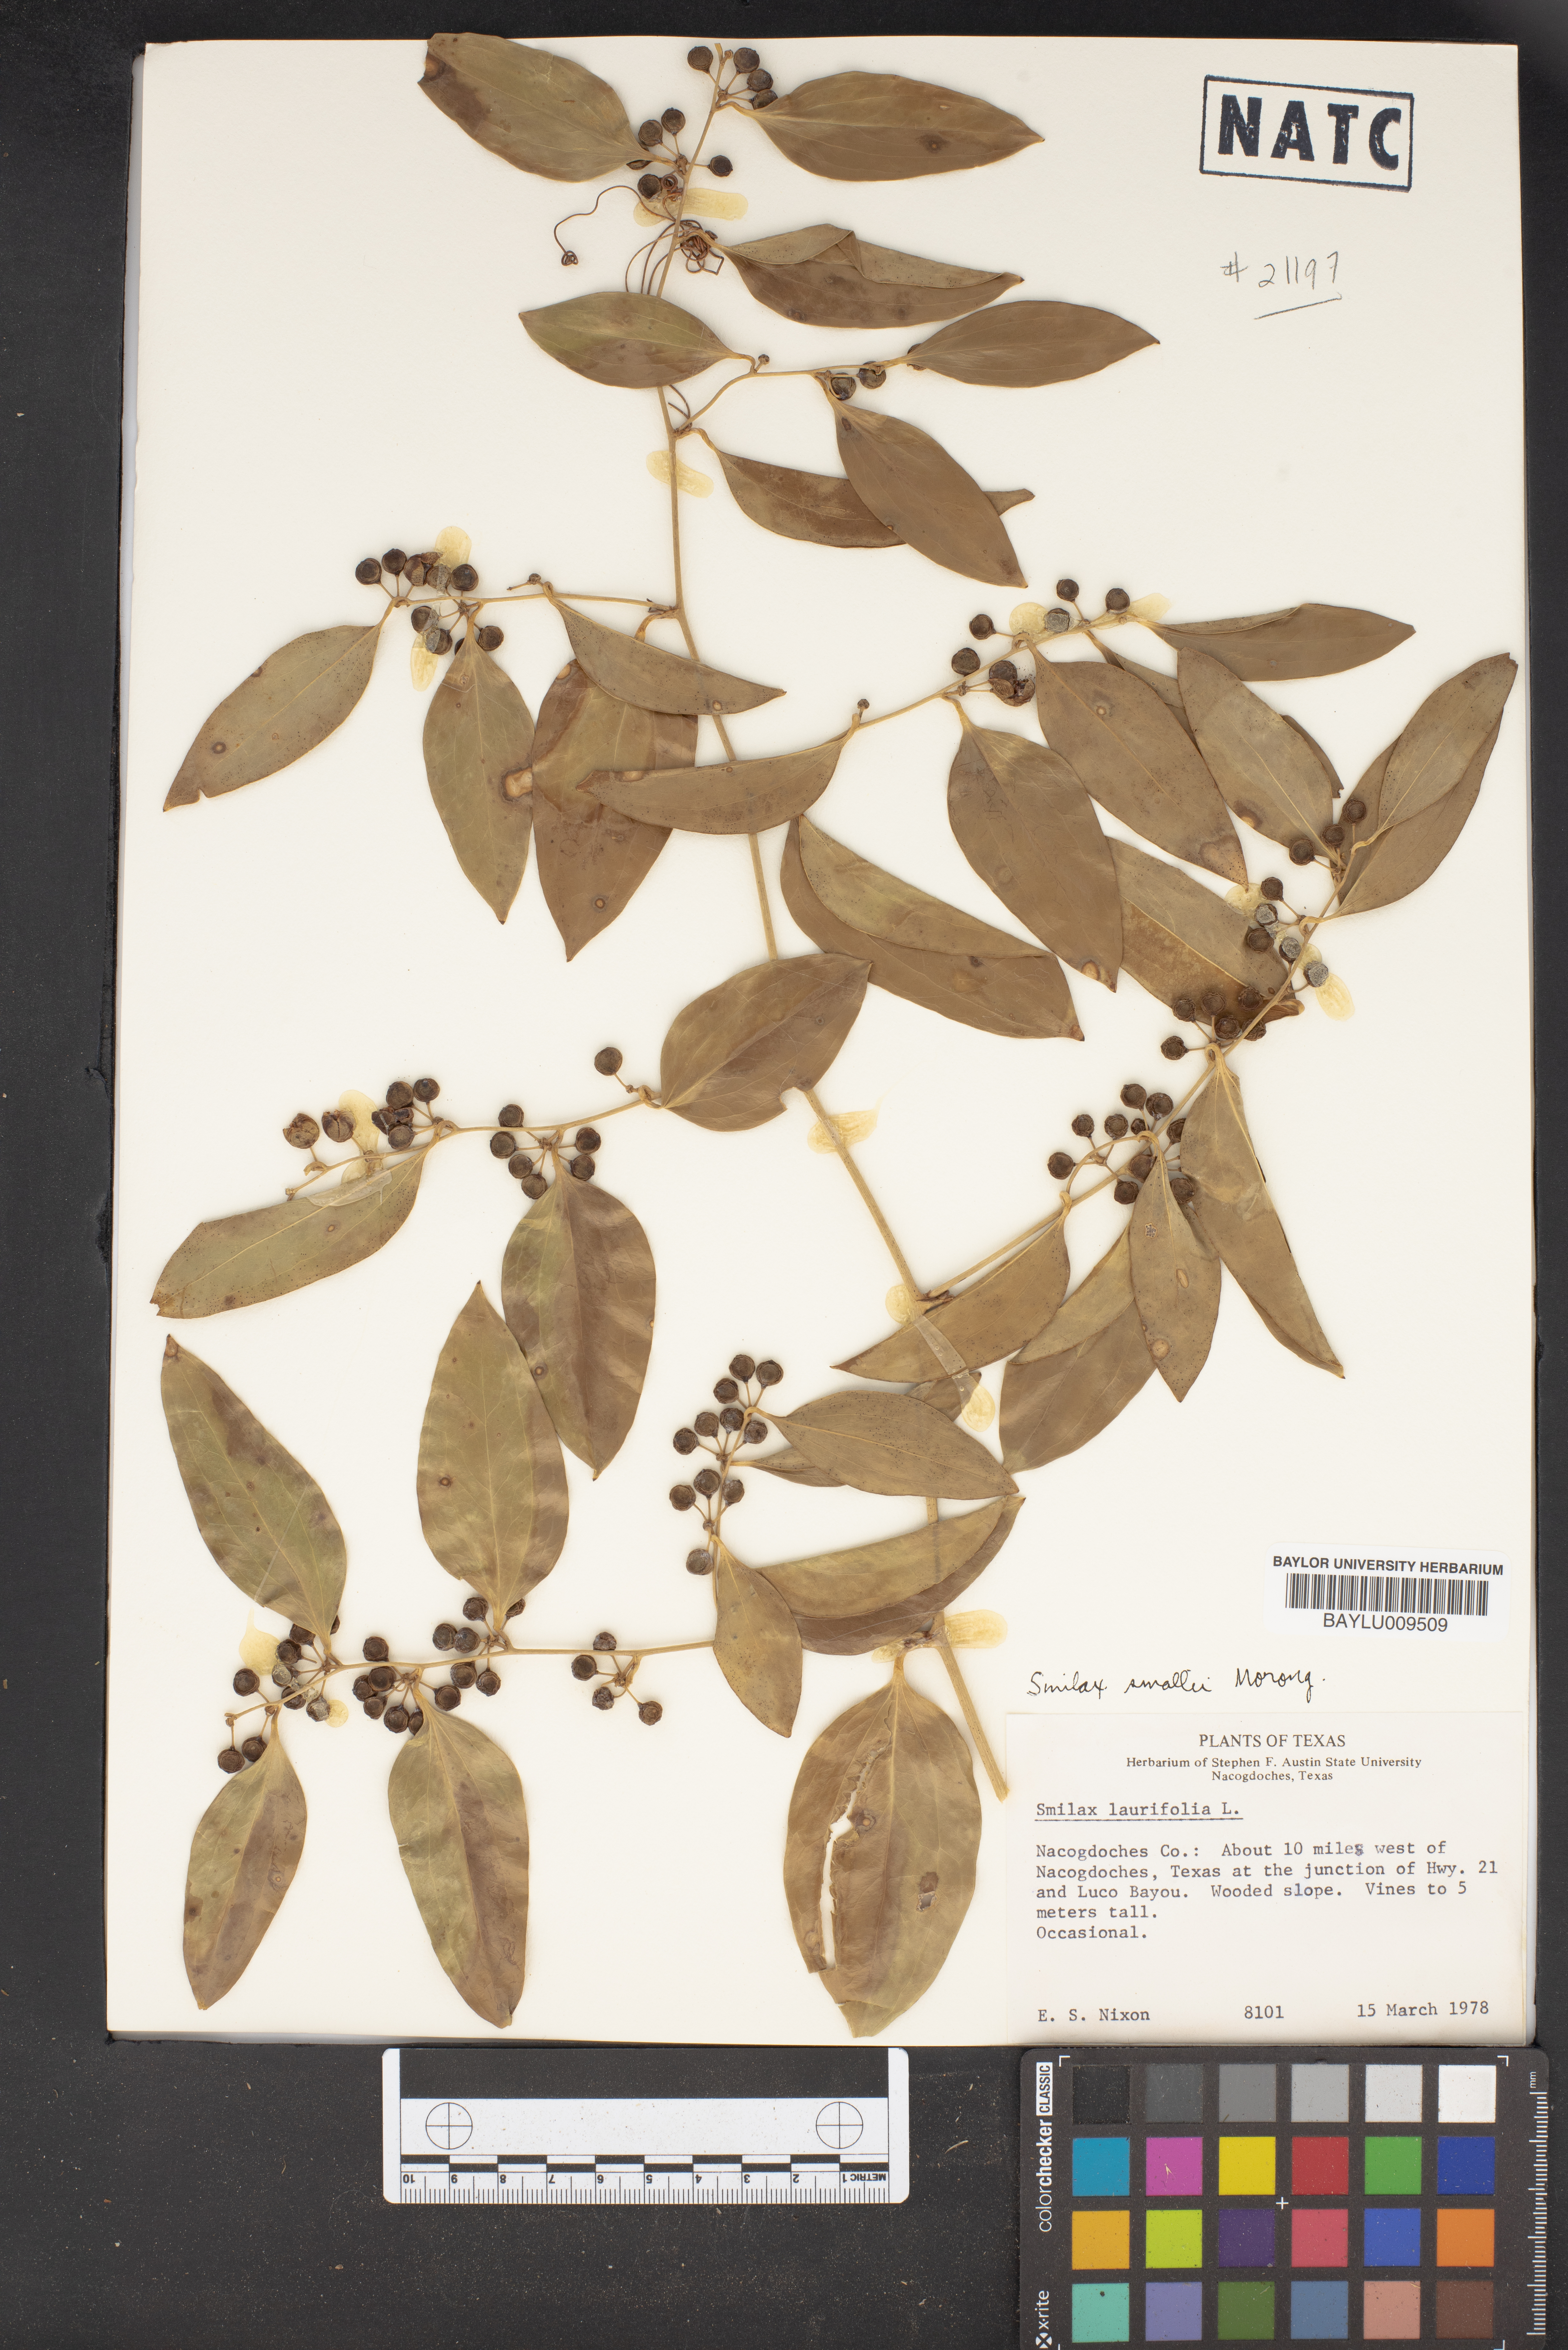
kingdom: Plantae
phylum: Tracheophyta
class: Liliopsida
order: Liliales
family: Smilacaceae
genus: Smilax
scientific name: Smilax maritima
